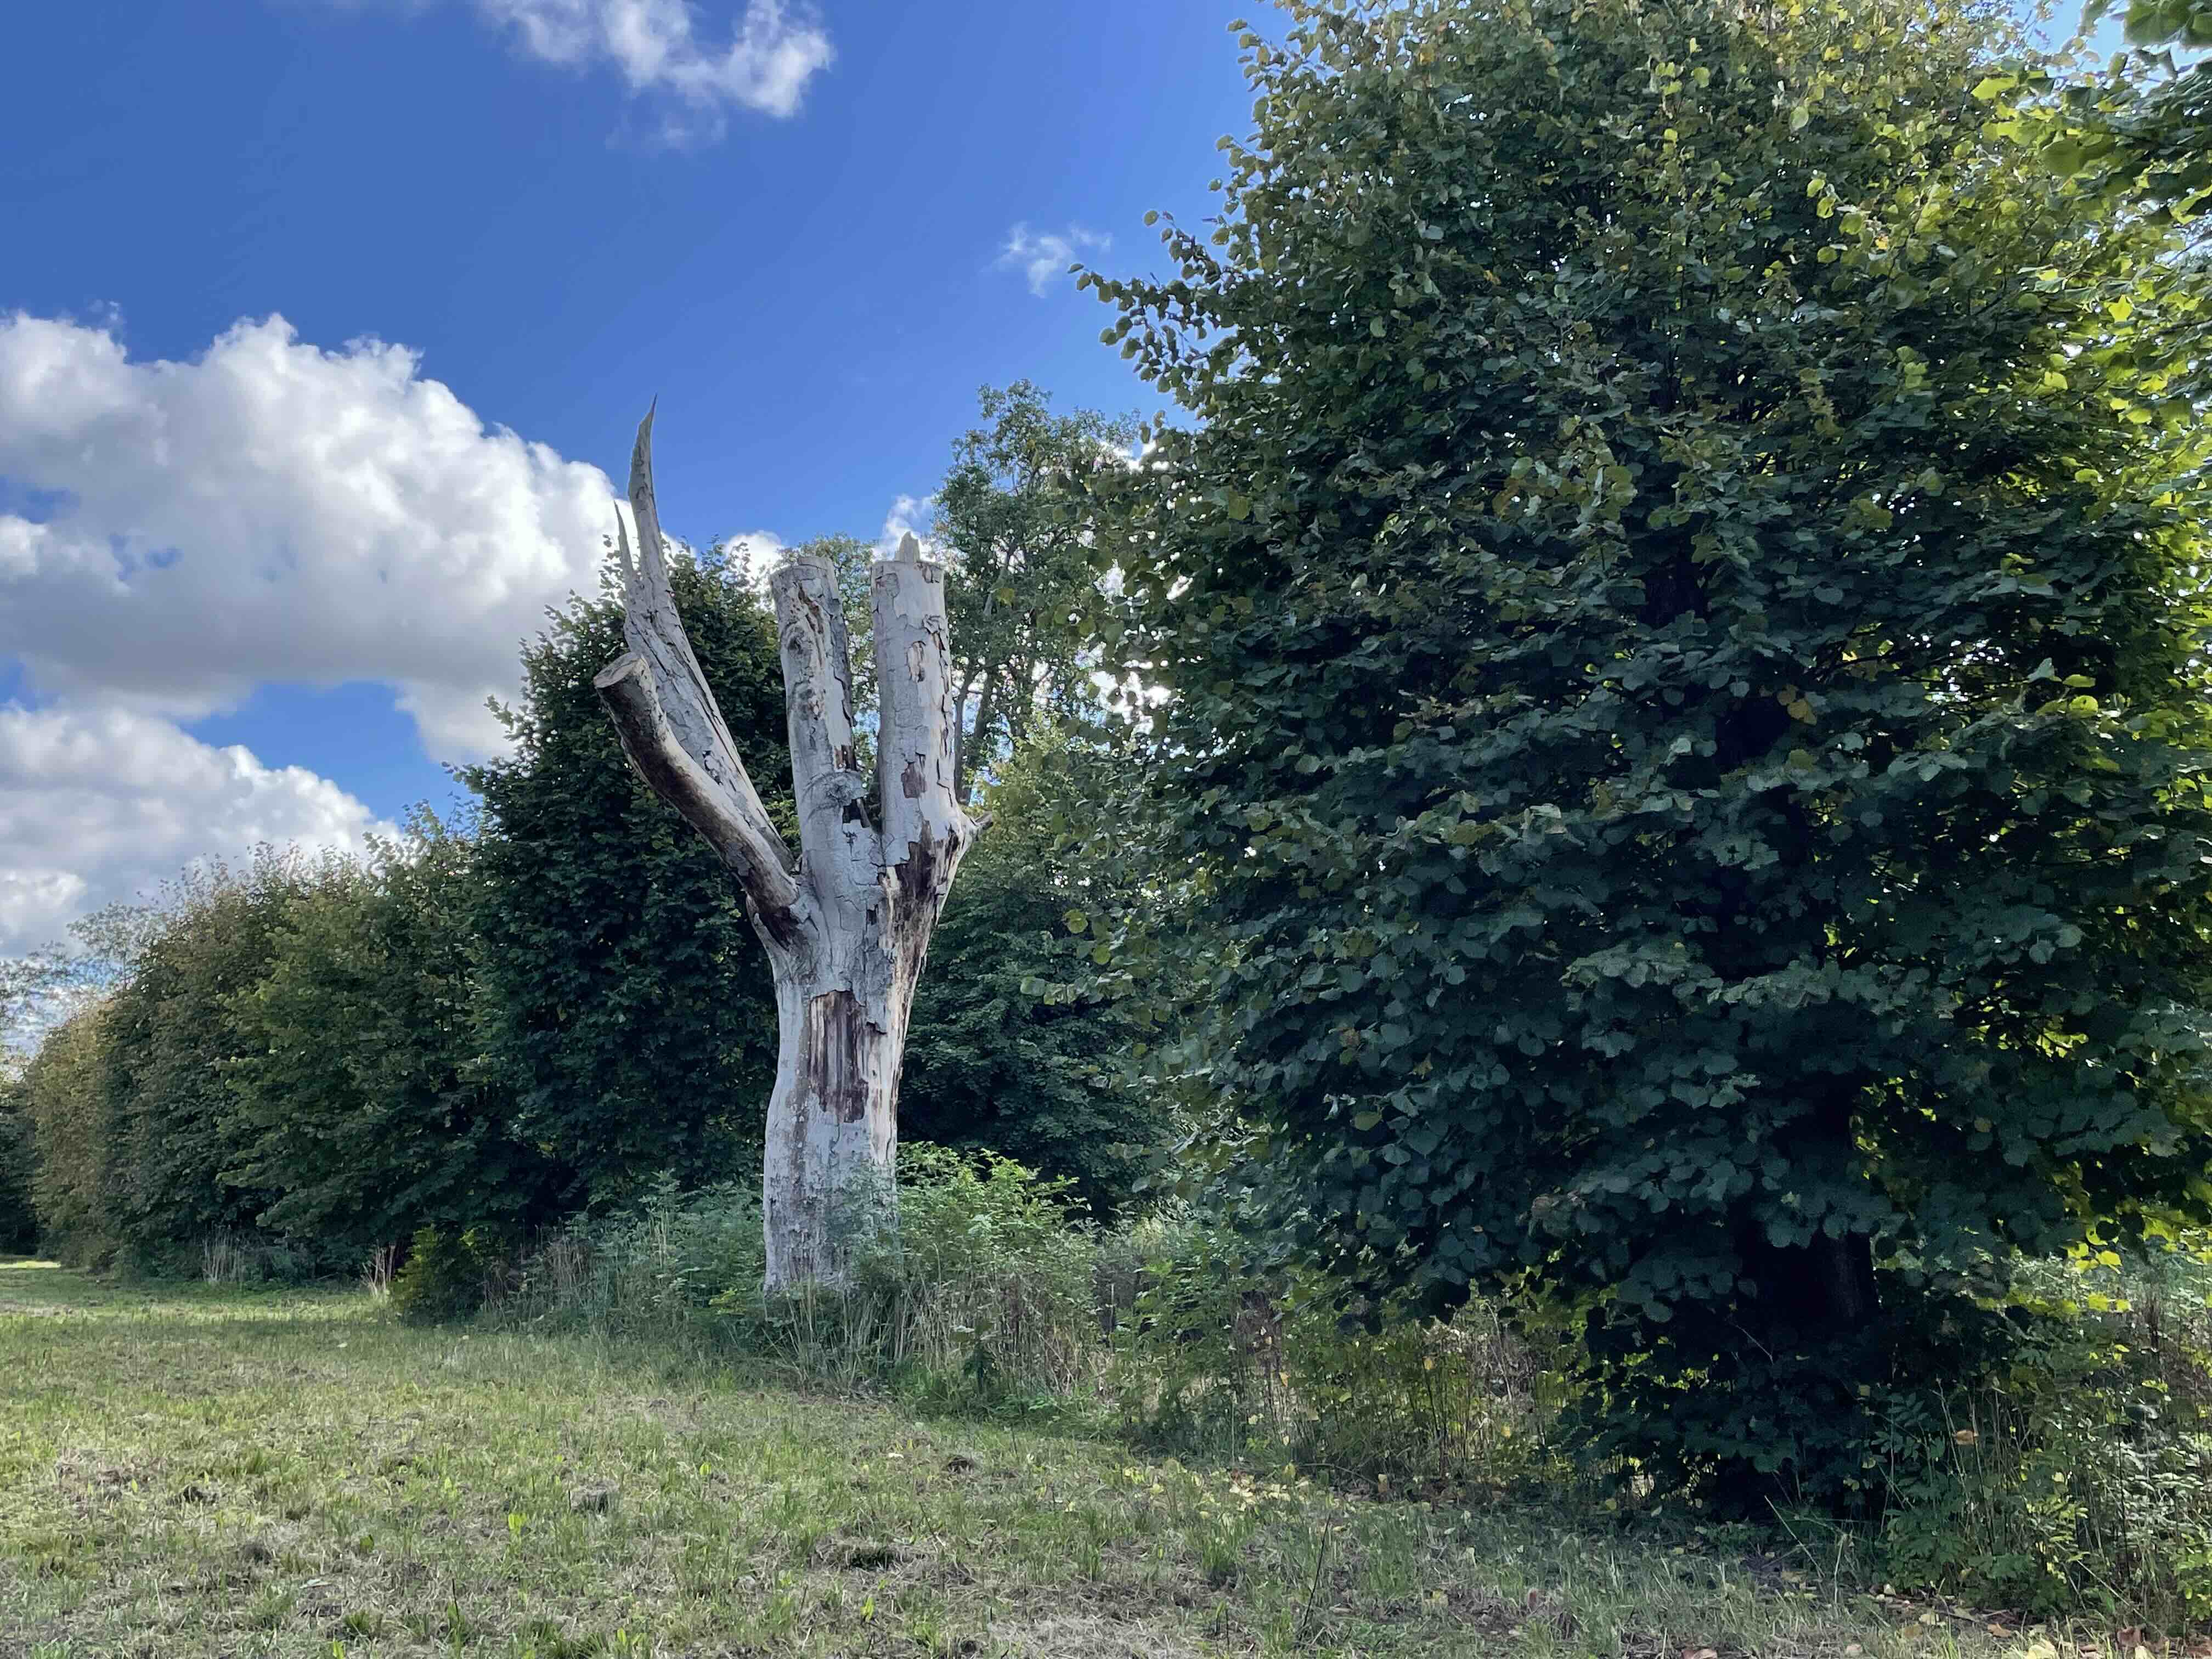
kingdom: Fungi
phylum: Basidiomycota
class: Agaricomycetes
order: Polyporales
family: Meripilaceae
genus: Meripilus
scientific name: Meripilus giganteus
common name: kæmpeporesvamp
